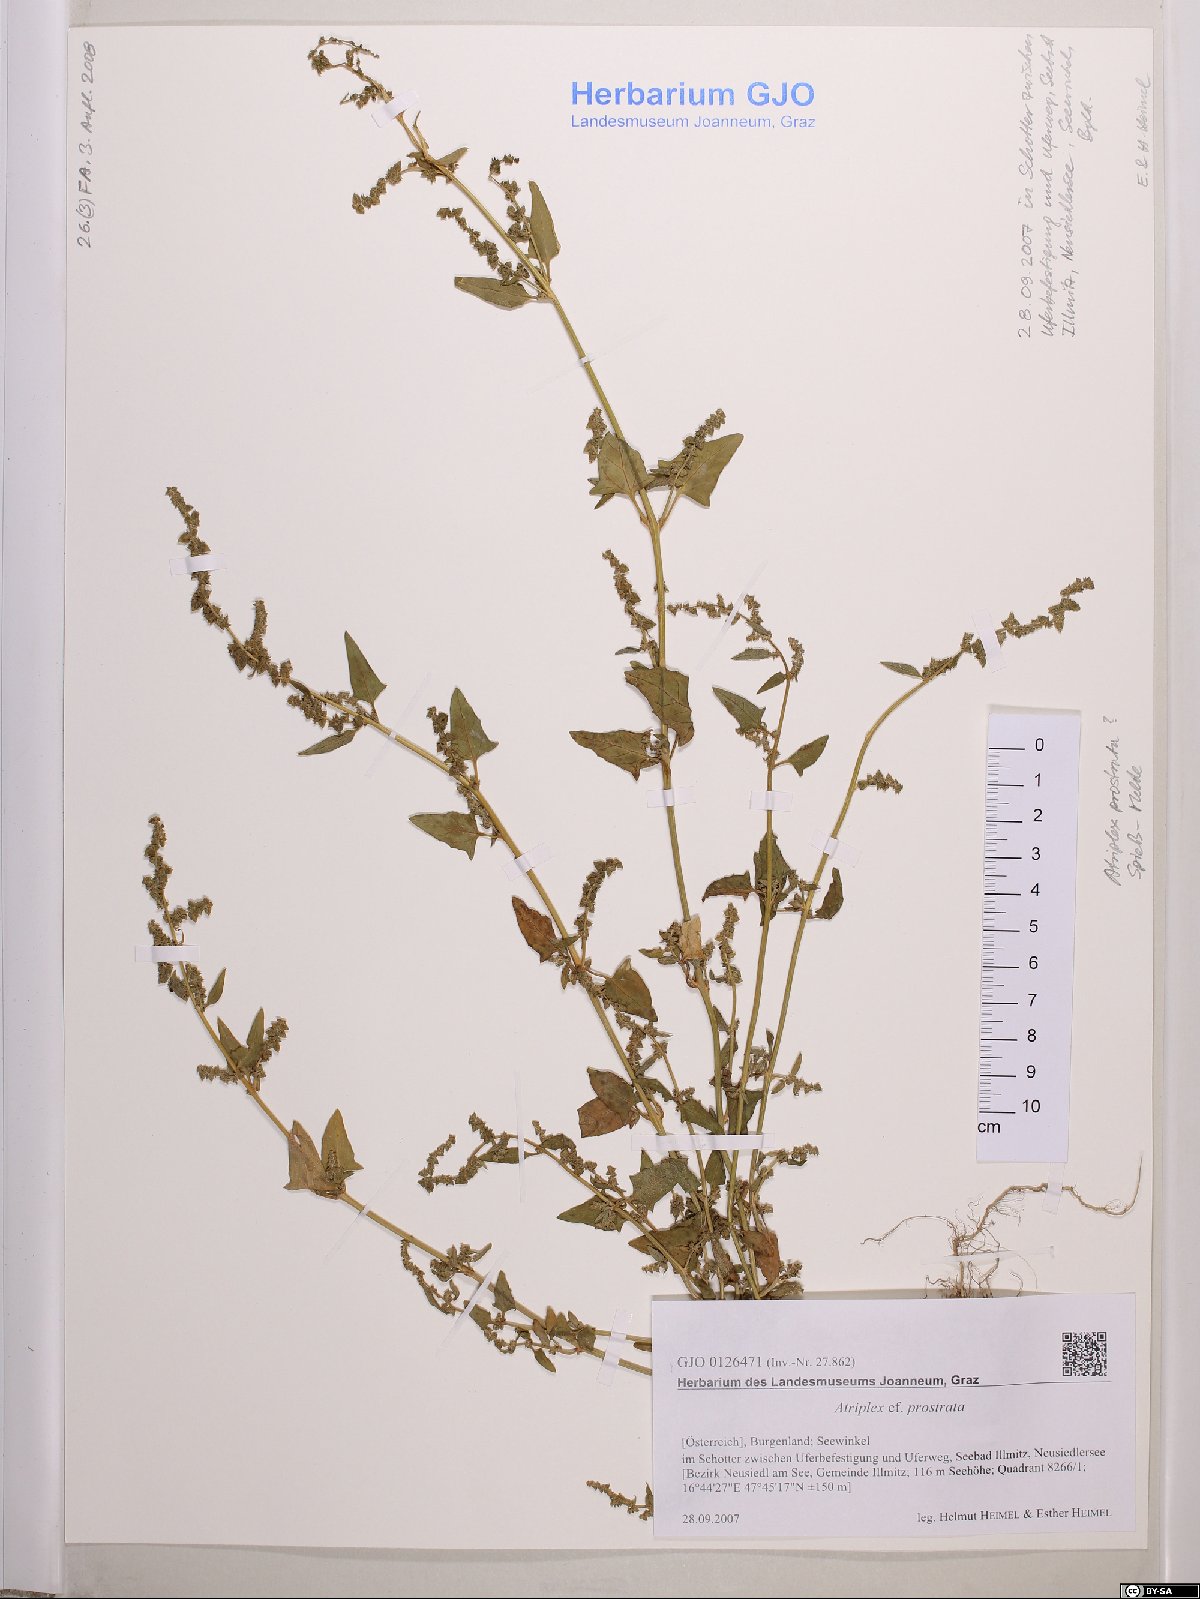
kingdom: Plantae
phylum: Tracheophyta
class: Magnoliopsida
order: Caryophyllales
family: Amaranthaceae
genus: Atriplex
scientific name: Atriplex prostrata
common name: Spear-leaved orache
